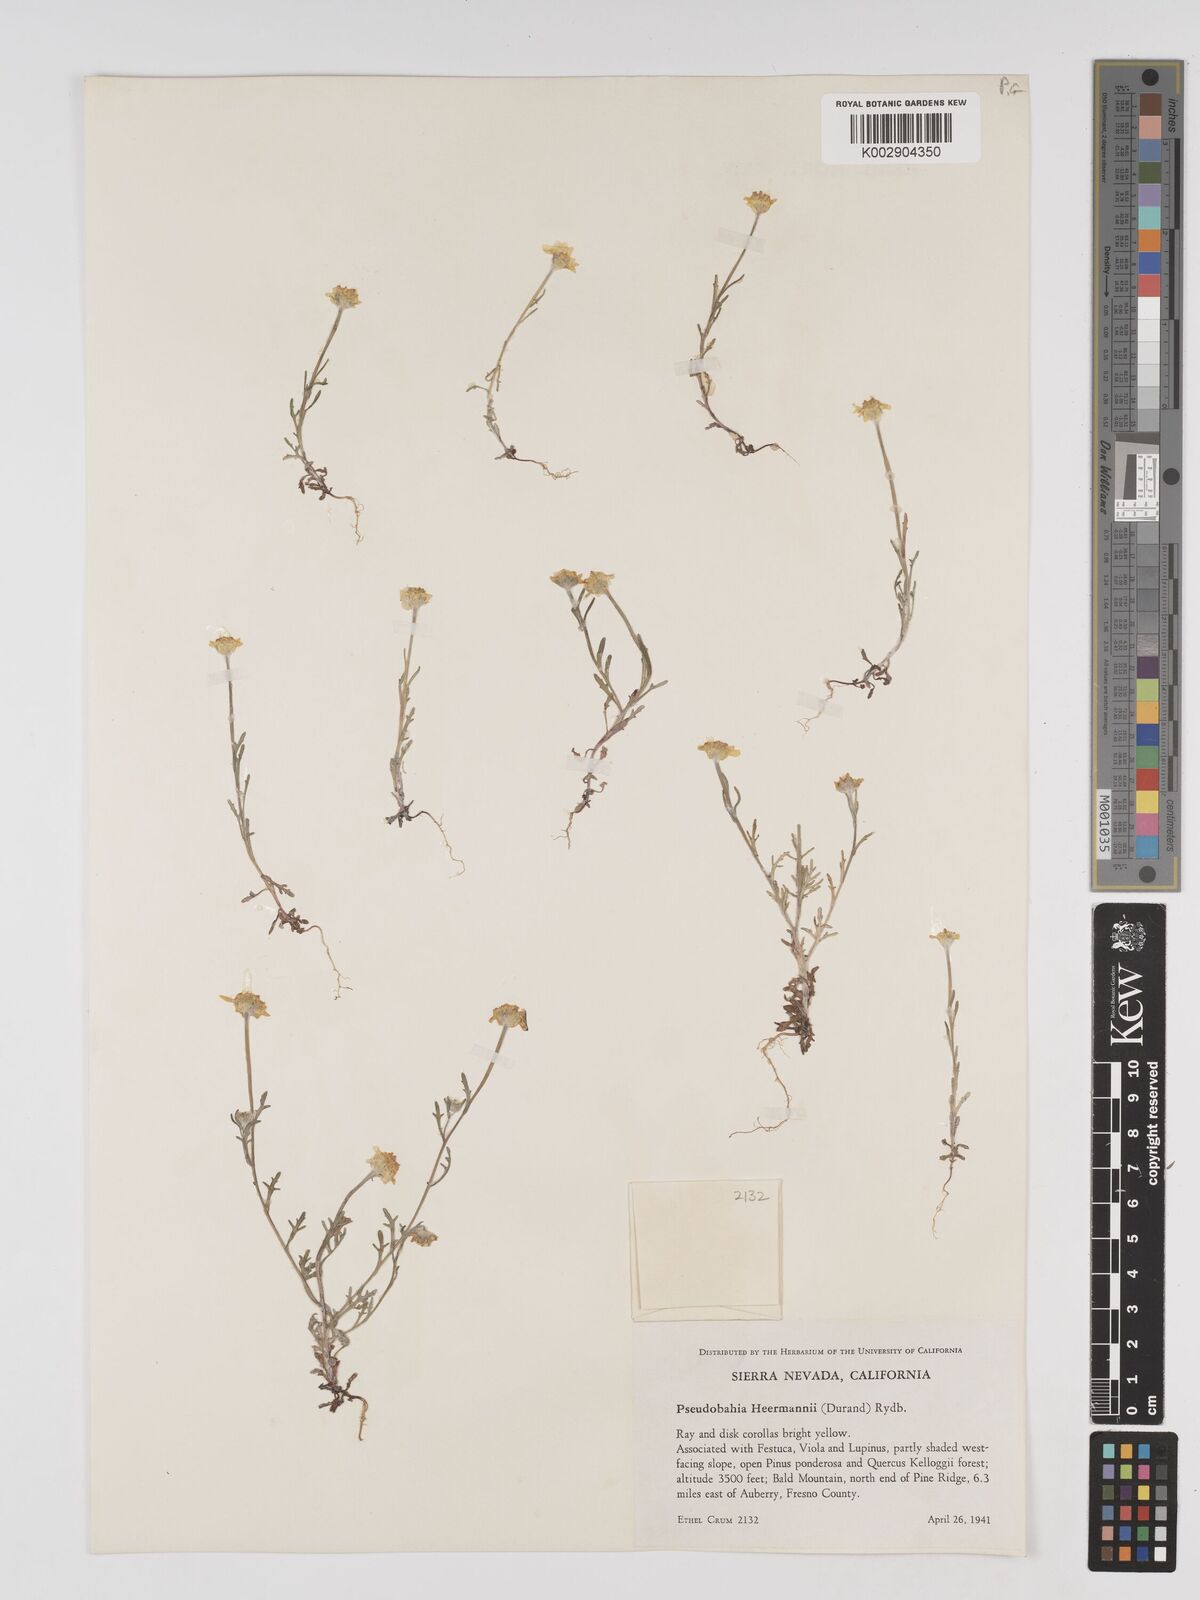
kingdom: Plantae
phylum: Tracheophyta
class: Magnoliopsida
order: Asterales
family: Asteraceae
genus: Eriophyllum
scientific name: Eriophyllum jepsonii
